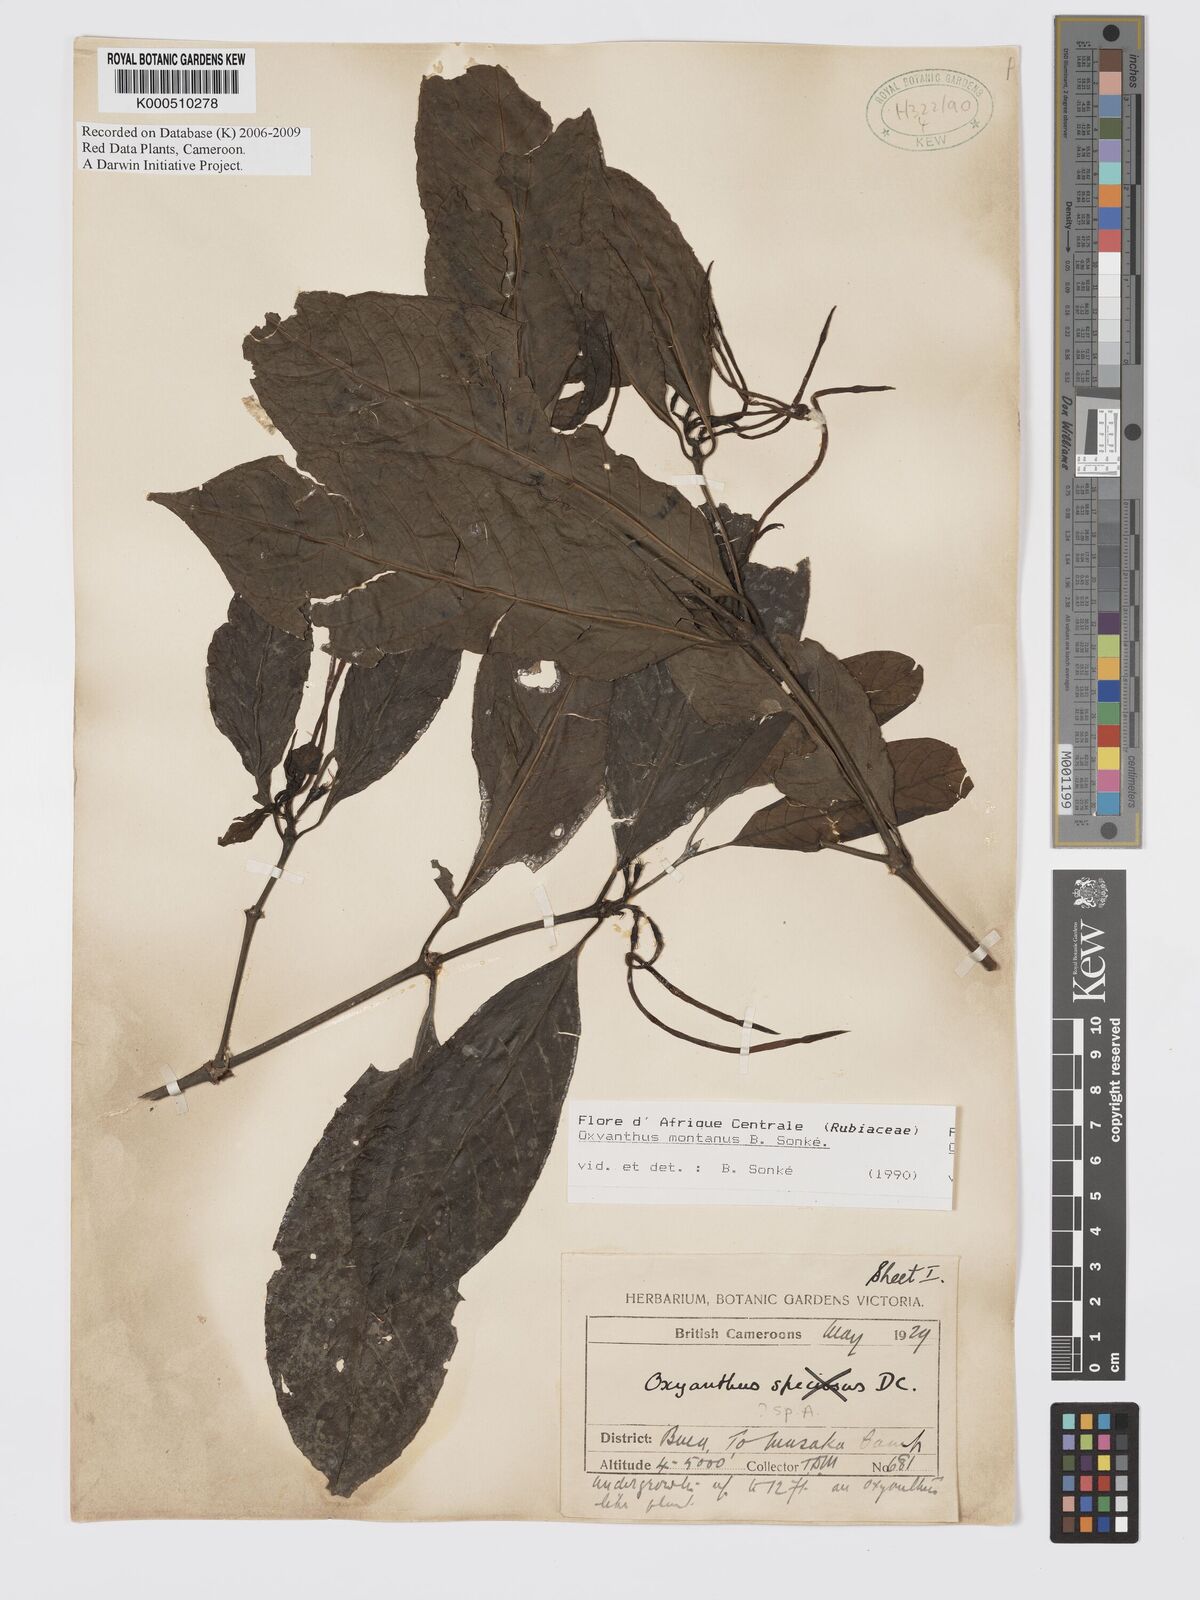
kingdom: Plantae
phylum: Tracheophyta
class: Magnoliopsida
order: Gentianales
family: Rubiaceae
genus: Oxyanthus
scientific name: Oxyanthus
